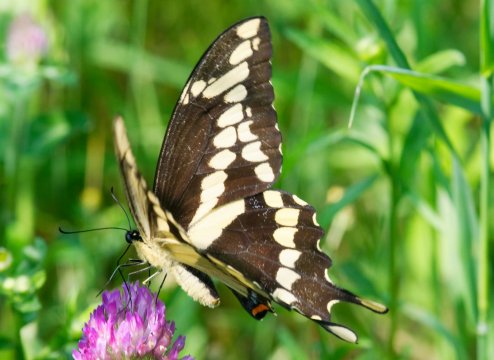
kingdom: Animalia
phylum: Arthropoda
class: Insecta
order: Lepidoptera
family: Papilionidae
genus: Papilio
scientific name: Papilio cresphontes
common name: Eastern Giant Swallowtail
